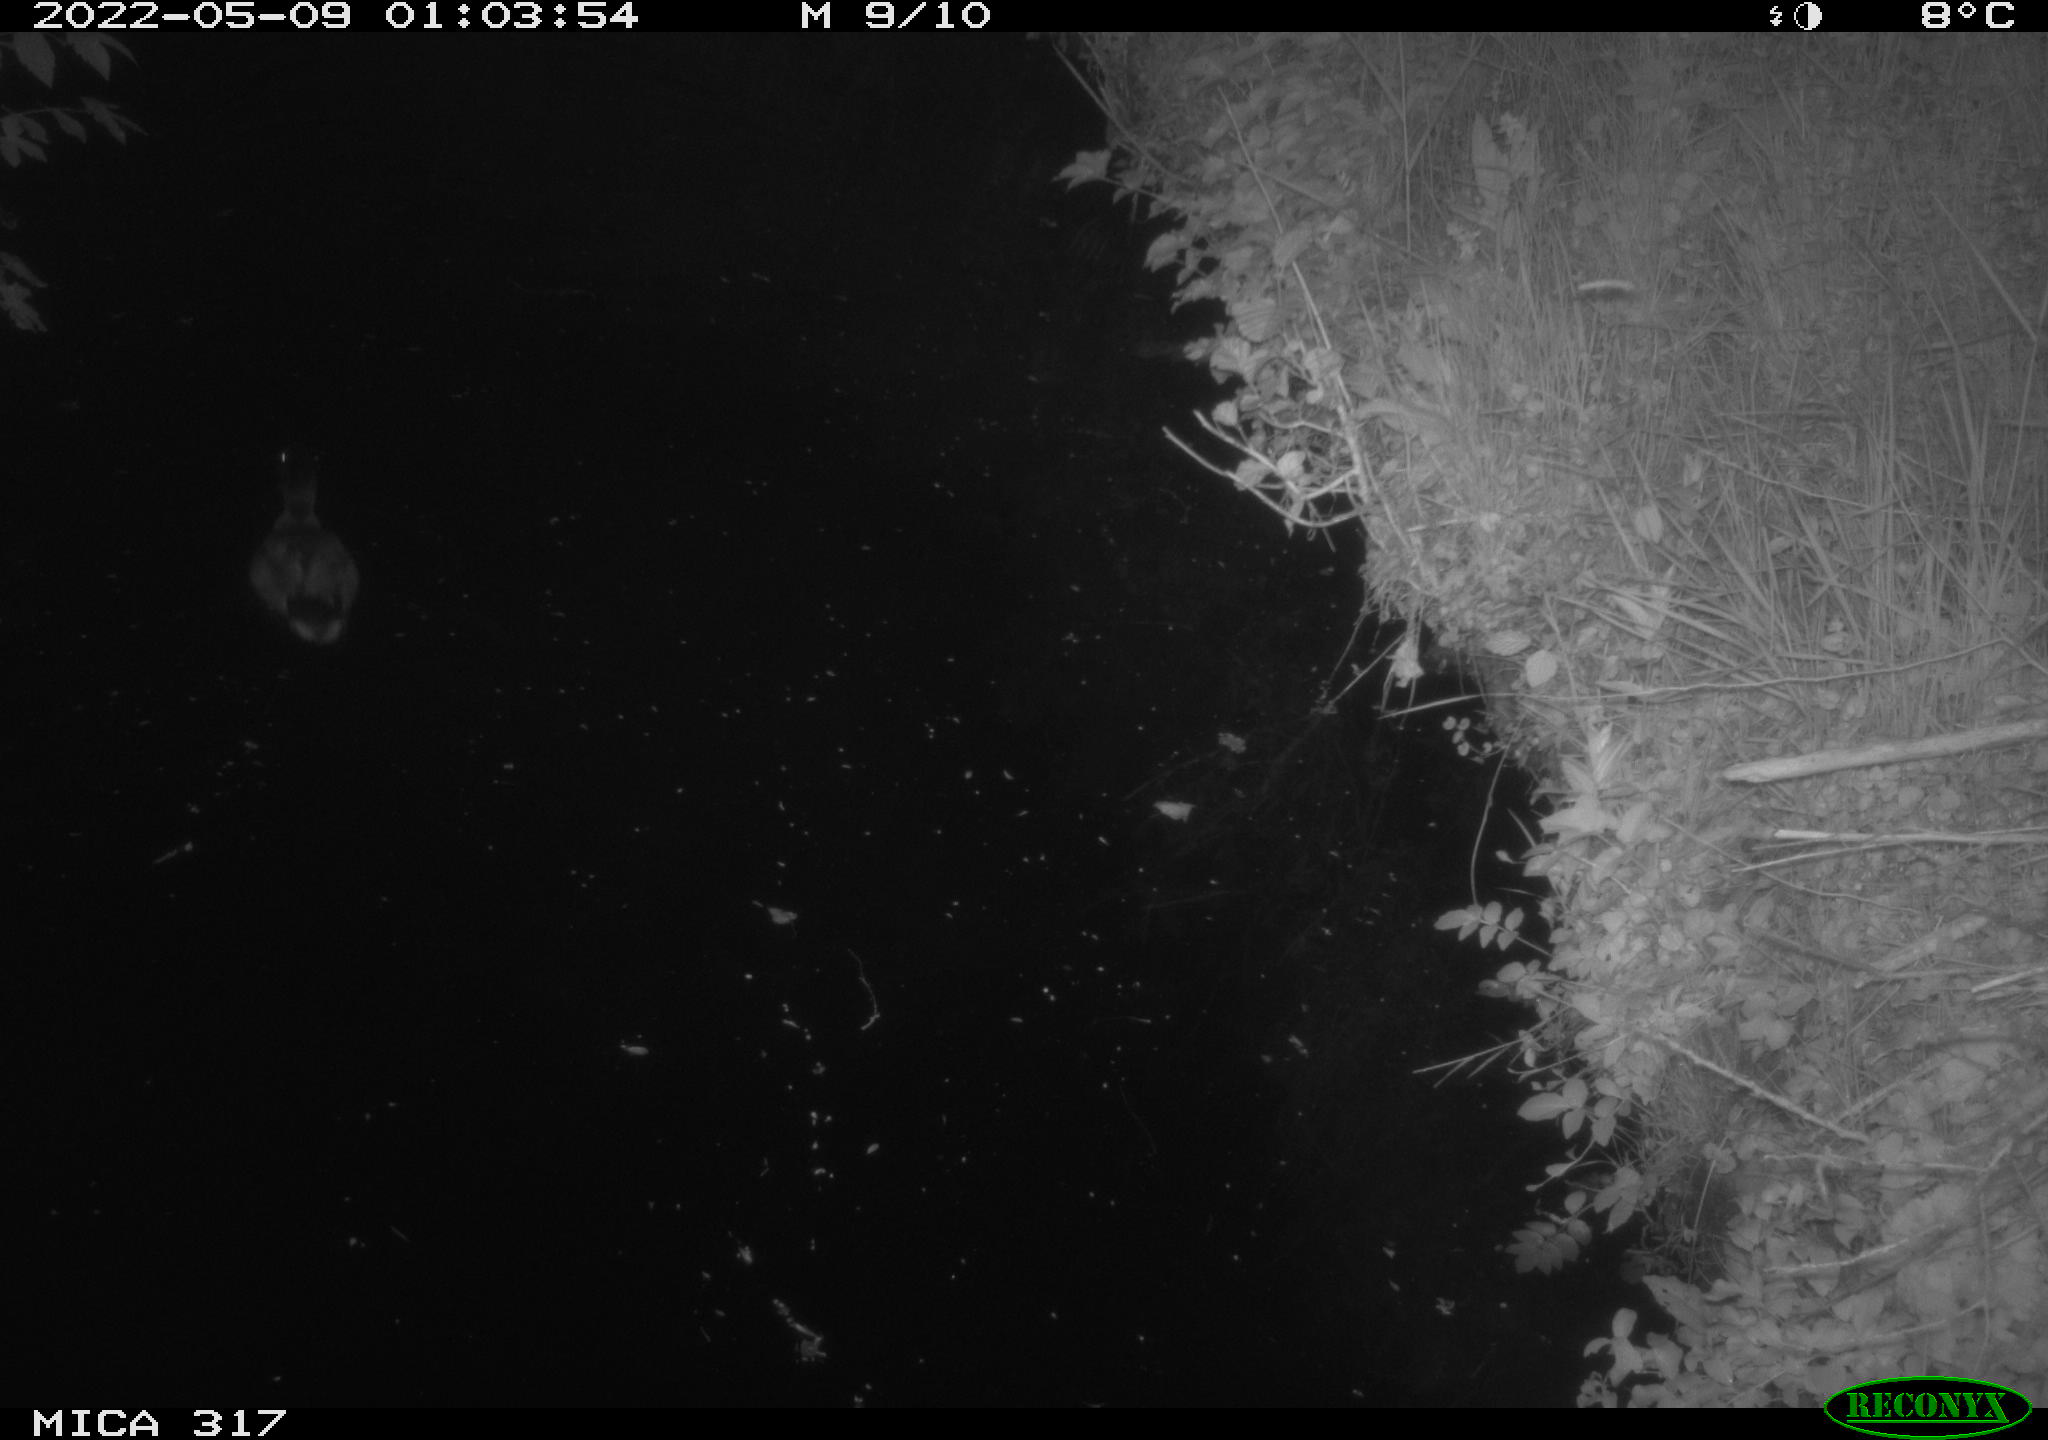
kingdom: Animalia
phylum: Chordata
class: Aves
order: Anseriformes
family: Anatidae
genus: Anas
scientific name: Anas platyrhynchos
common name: Mallard
